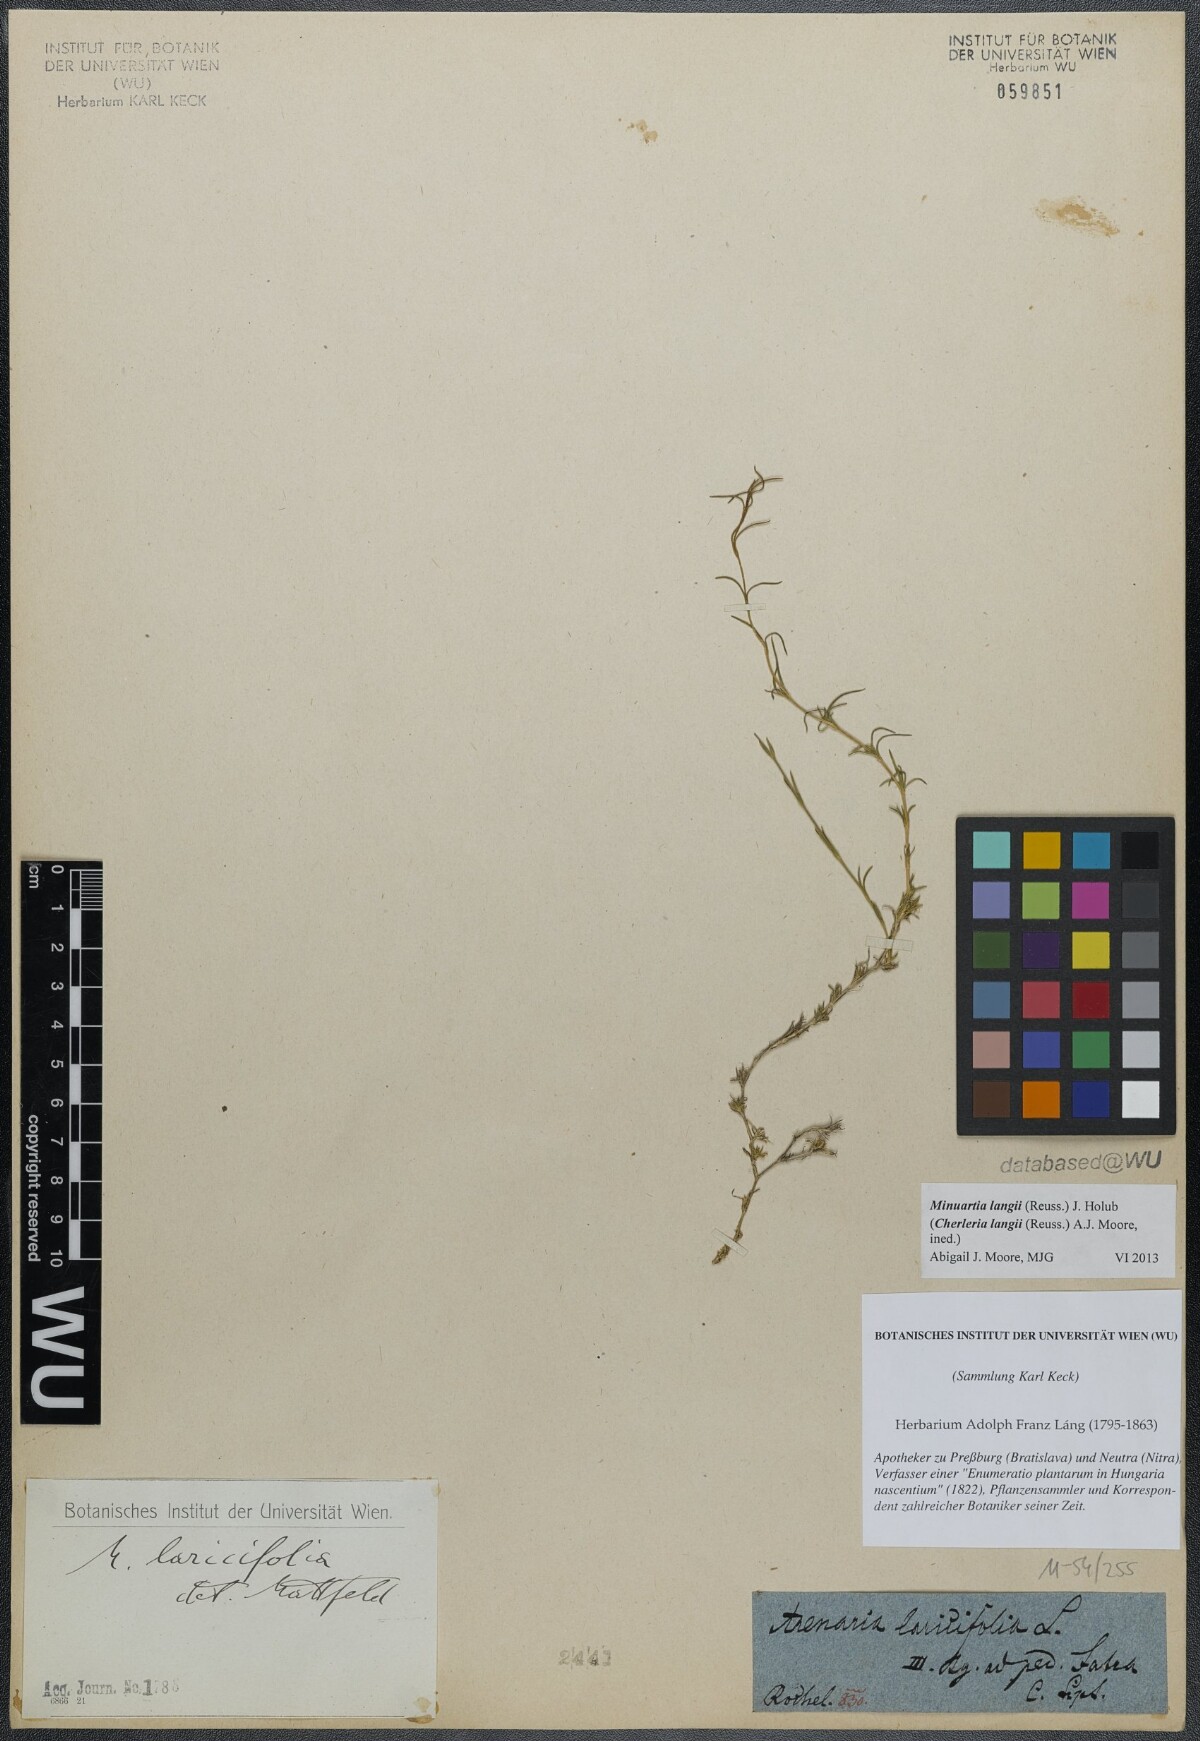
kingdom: Plantae
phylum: Tracheophyta
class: Magnoliopsida
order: Caryophyllales
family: Caryophyllaceae
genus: Cherleria
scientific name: Cherleria langii
